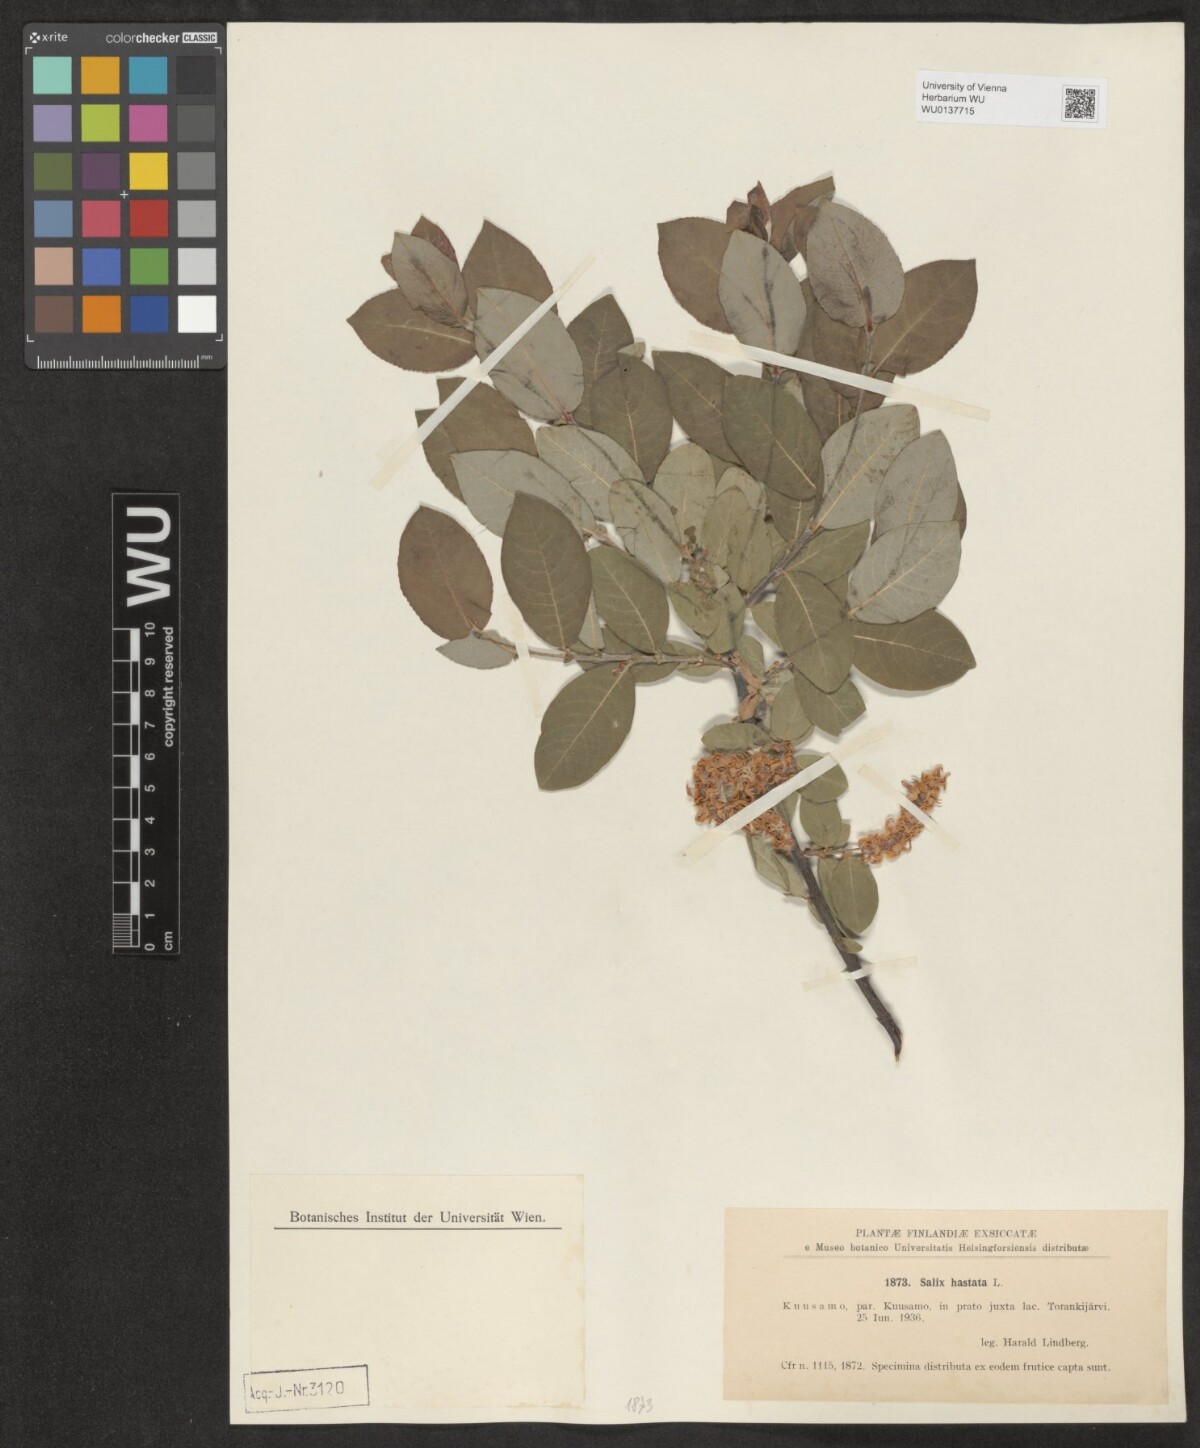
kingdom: Plantae
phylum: Tracheophyta
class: Magnoliopsida
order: Malpighiales
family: Salicaceae
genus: Salix
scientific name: Salix hastata
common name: Halberd willow
